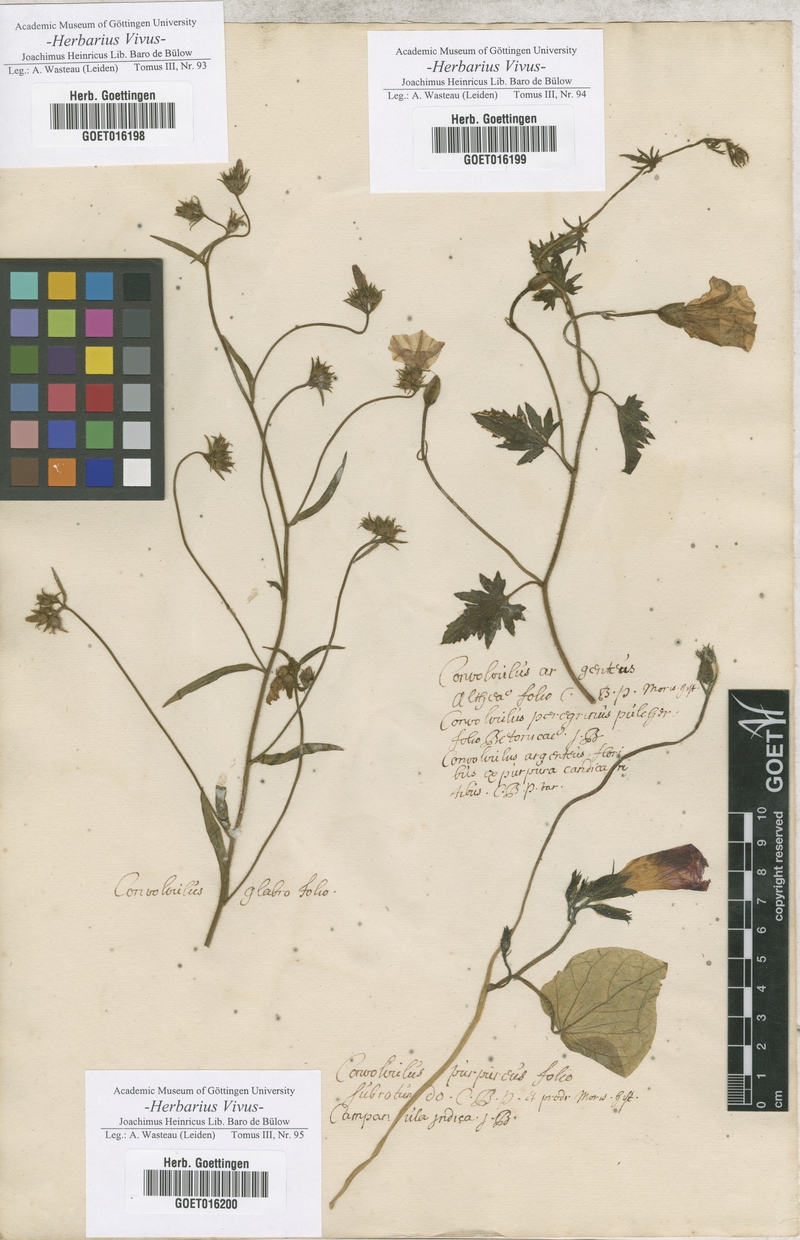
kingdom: Plantae
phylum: Tracheophyta
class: Magnoliopsida
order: Solanales
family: Convolvulaceae
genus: Convolvulus
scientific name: Convolvulus
